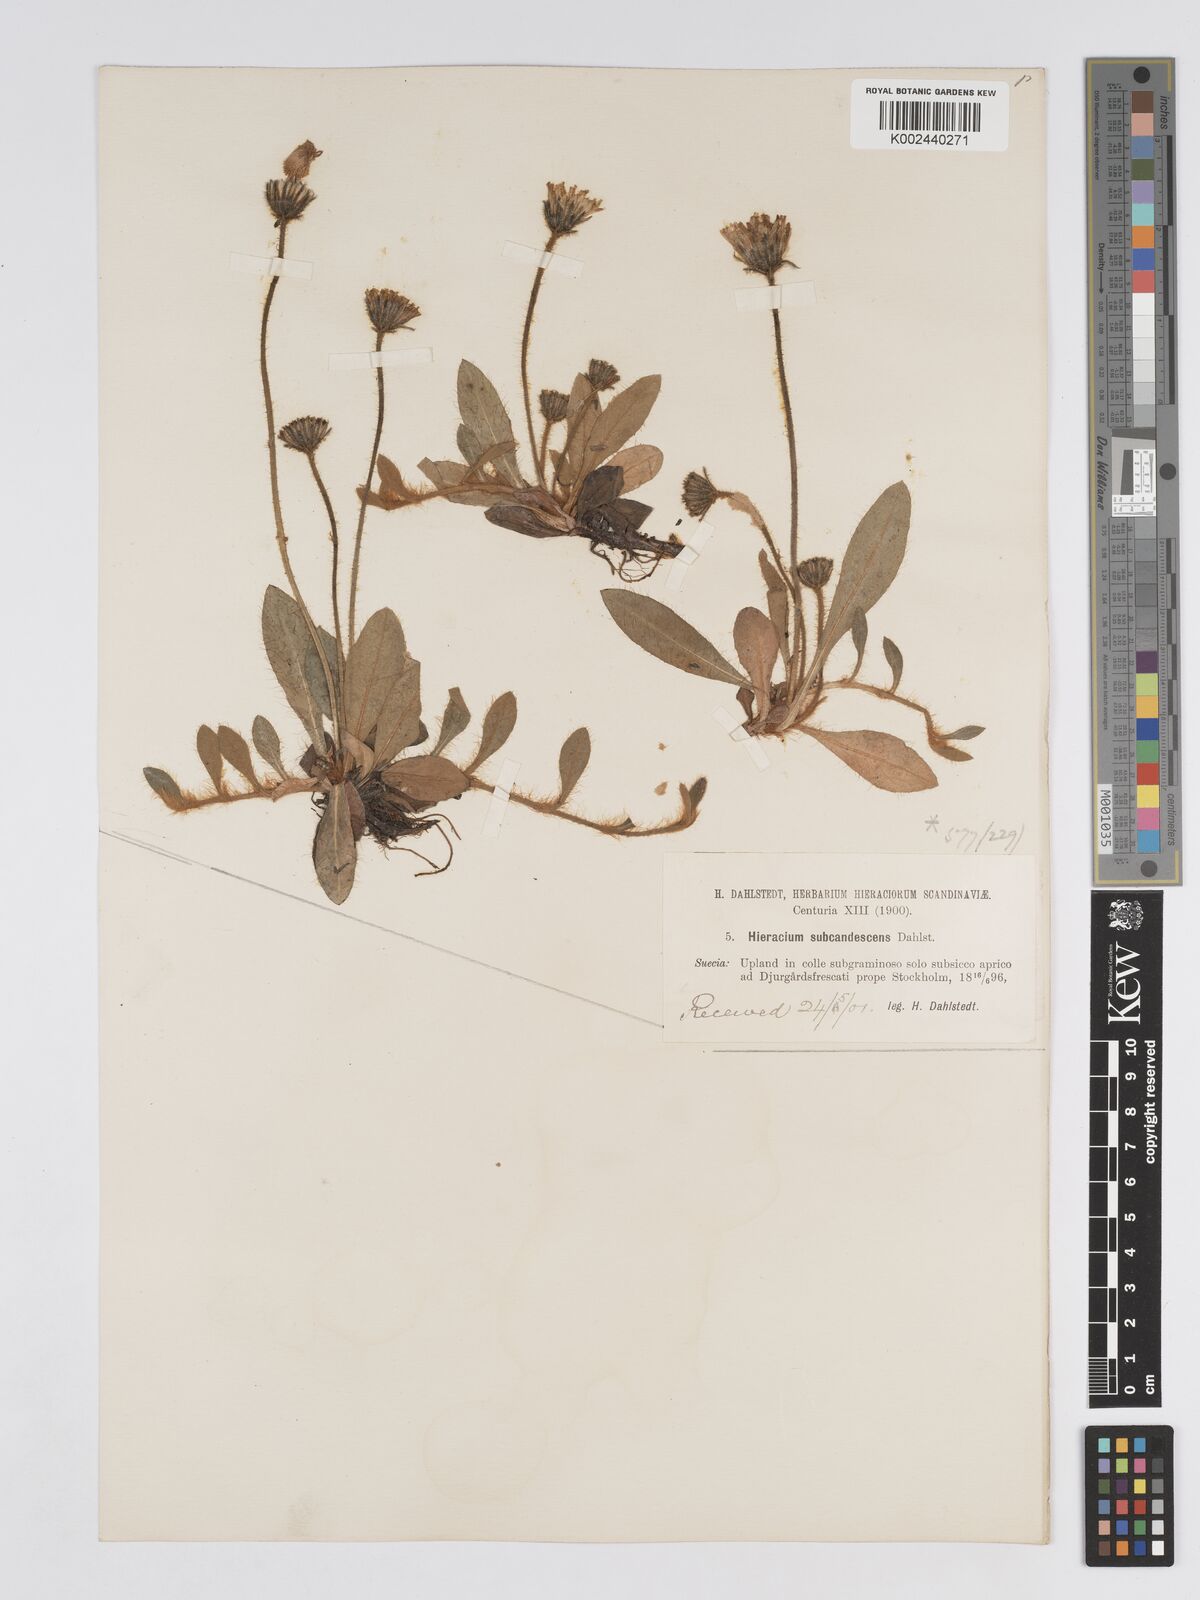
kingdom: Plantae
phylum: Tracheophyta
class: Magnoliopsida
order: Asterales
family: Asteraceae
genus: Hieracium
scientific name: Hieracium
